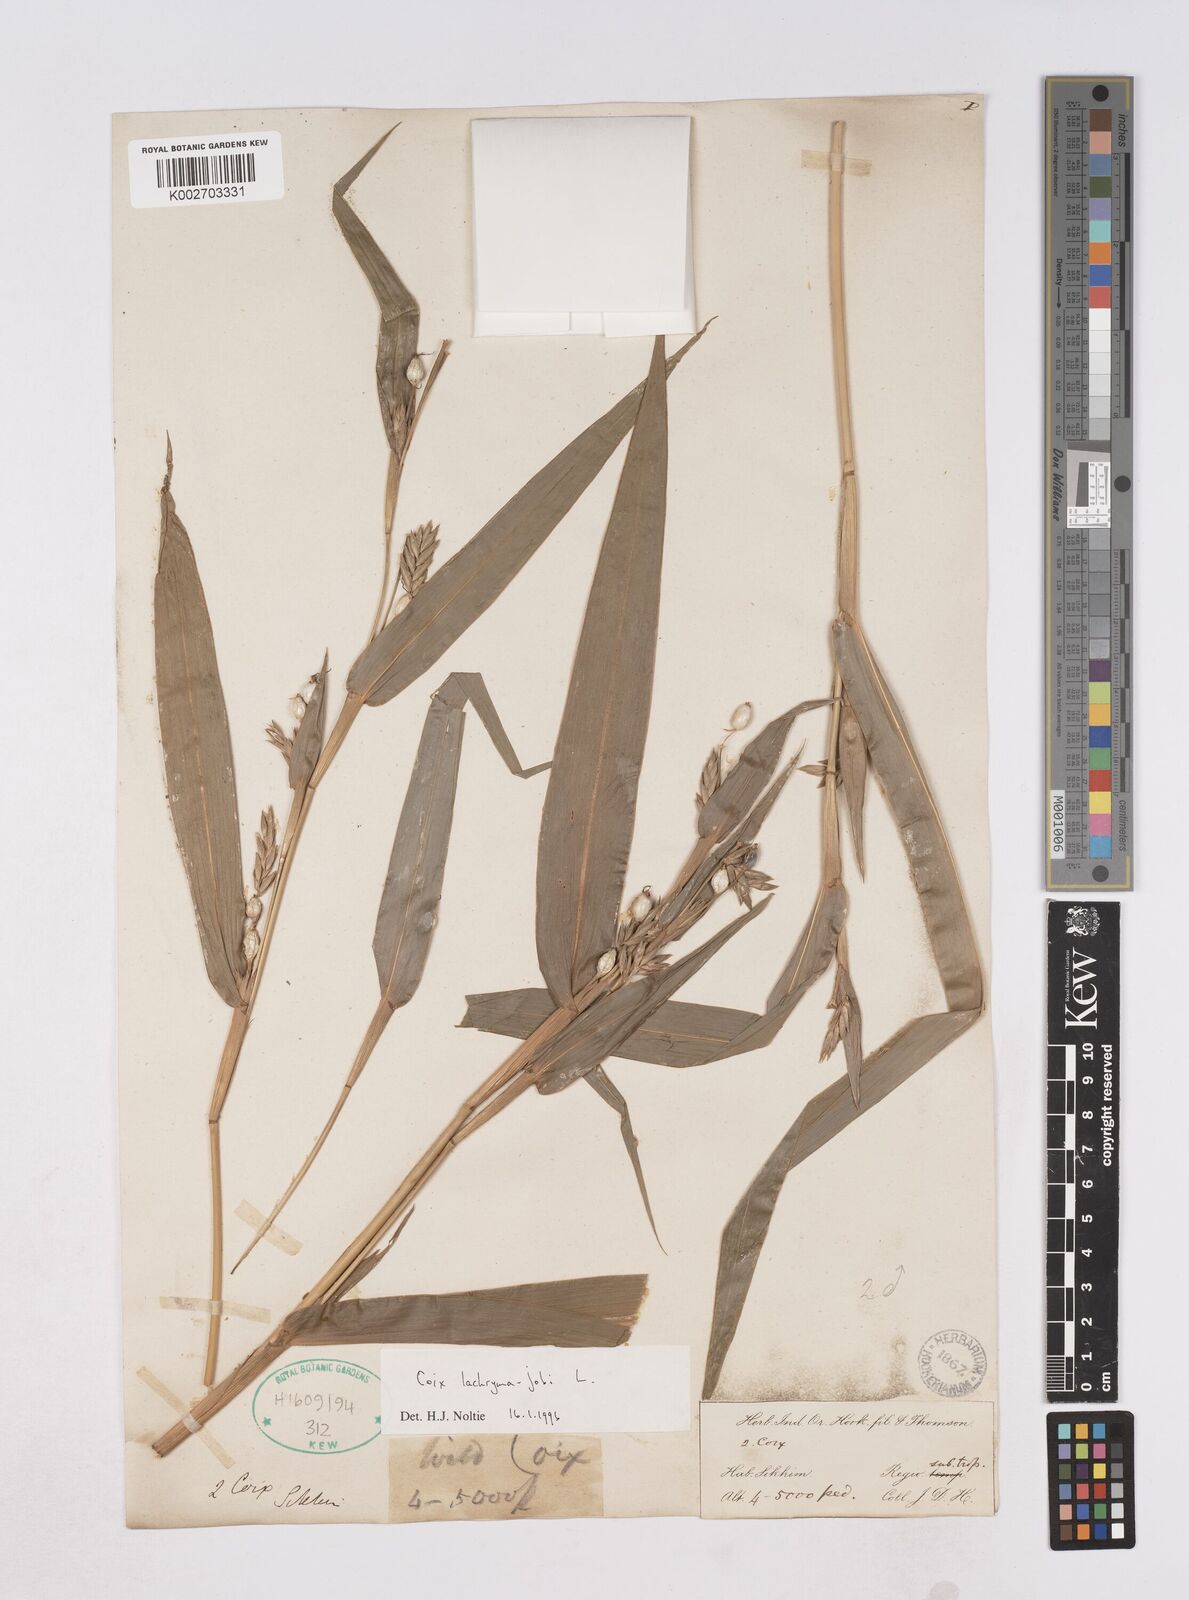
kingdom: Plantae
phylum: Tracheophyta
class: Liliopsida
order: Poales
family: Poaceae
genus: Coix
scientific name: Coix lacryma-jobi
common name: Job's tears
